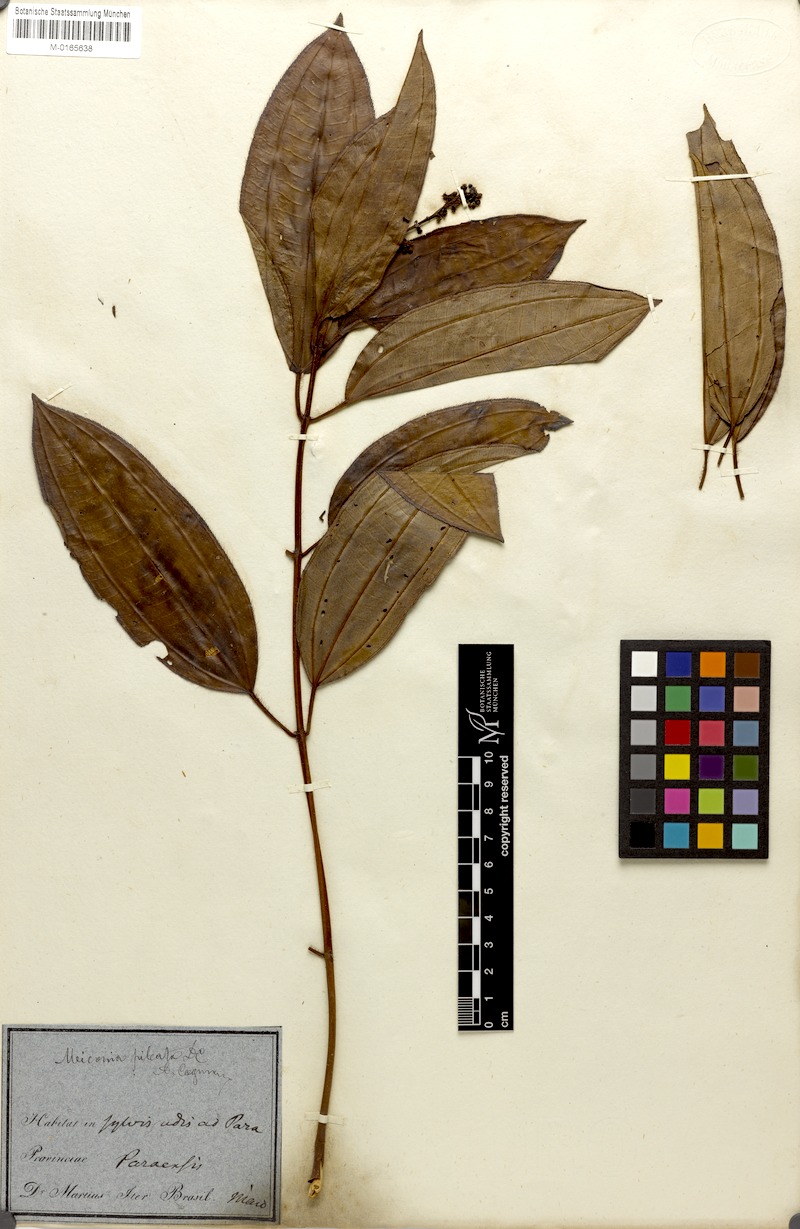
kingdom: Plantae
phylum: Tracheophyta
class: Magnoliopsida
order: Myrtales
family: Melastomataceae
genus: Miconia
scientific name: Miconia pileata
